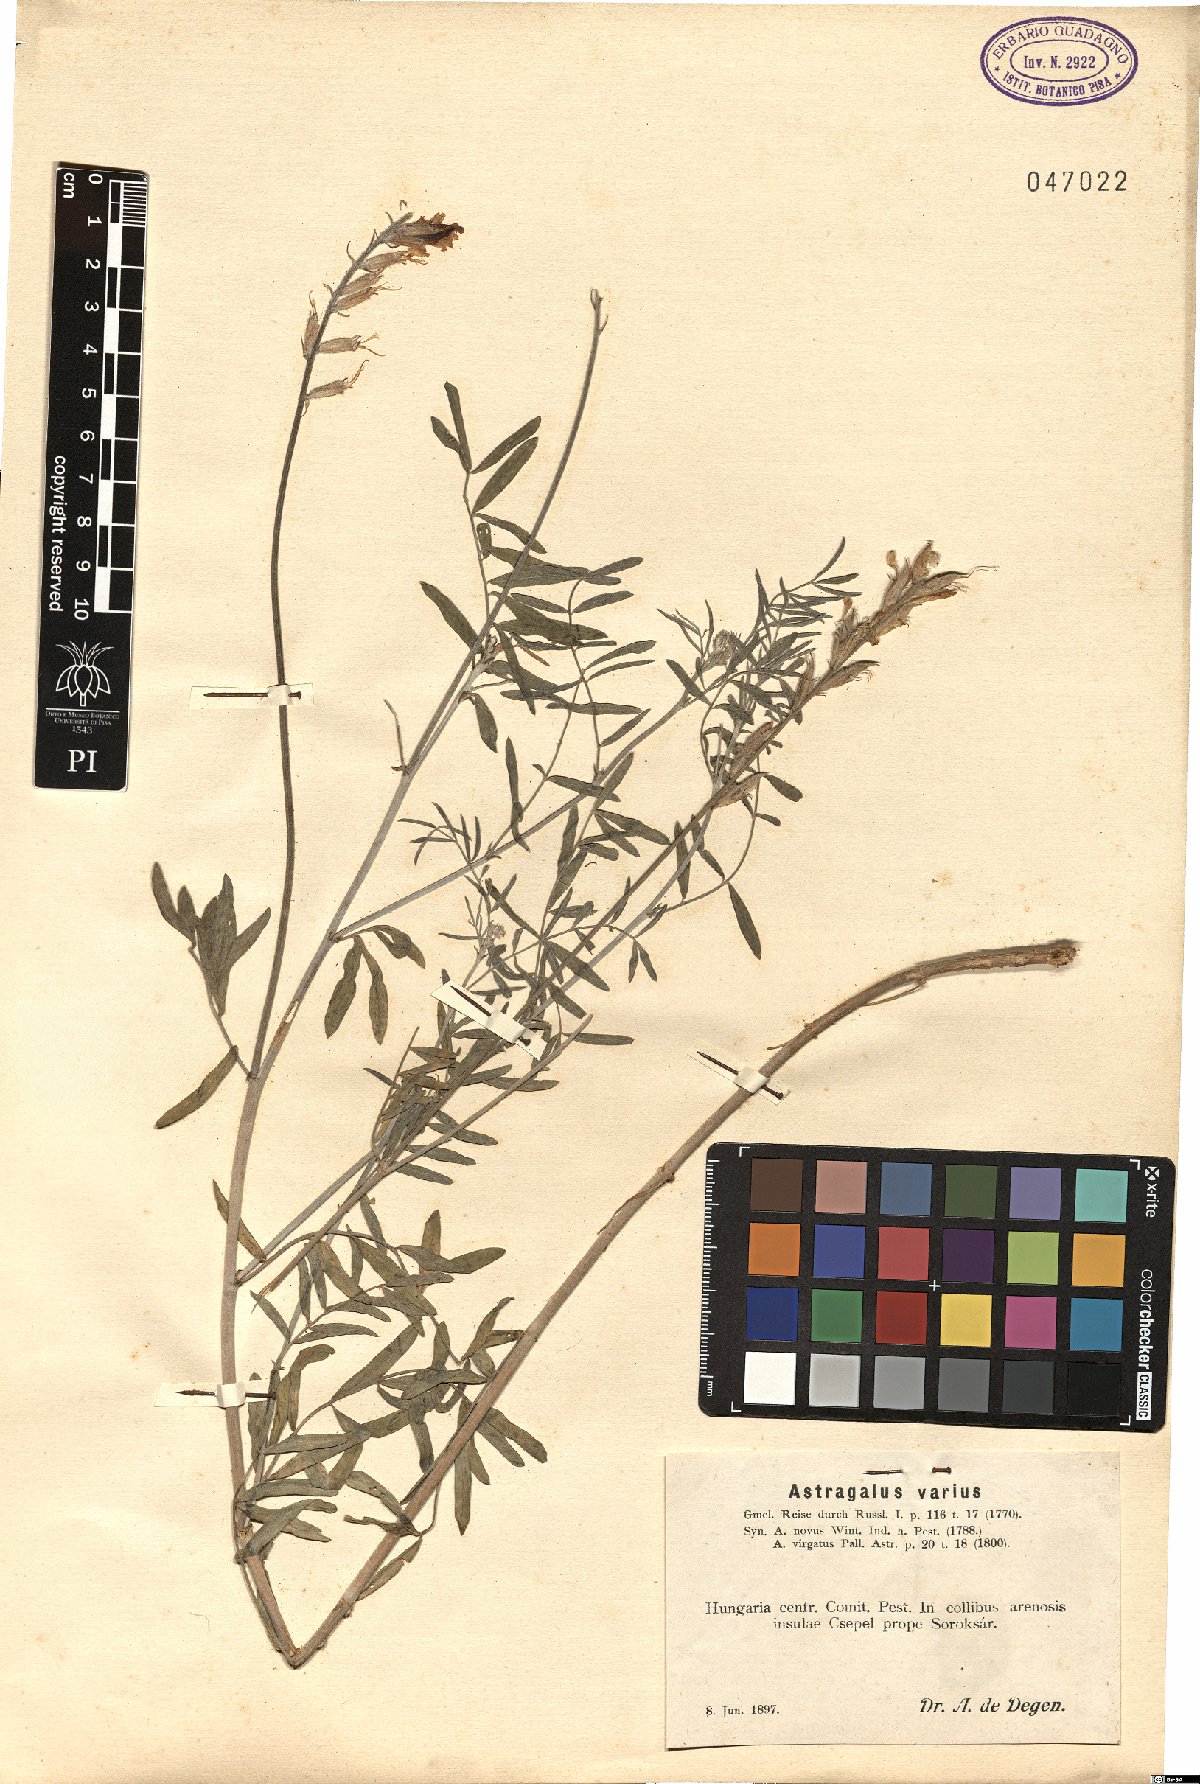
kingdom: Plantae
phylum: Tracheophyta
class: Magnoliopsida
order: Fabales
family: Fabaceae
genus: Astragalus
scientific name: Astragalus varius
